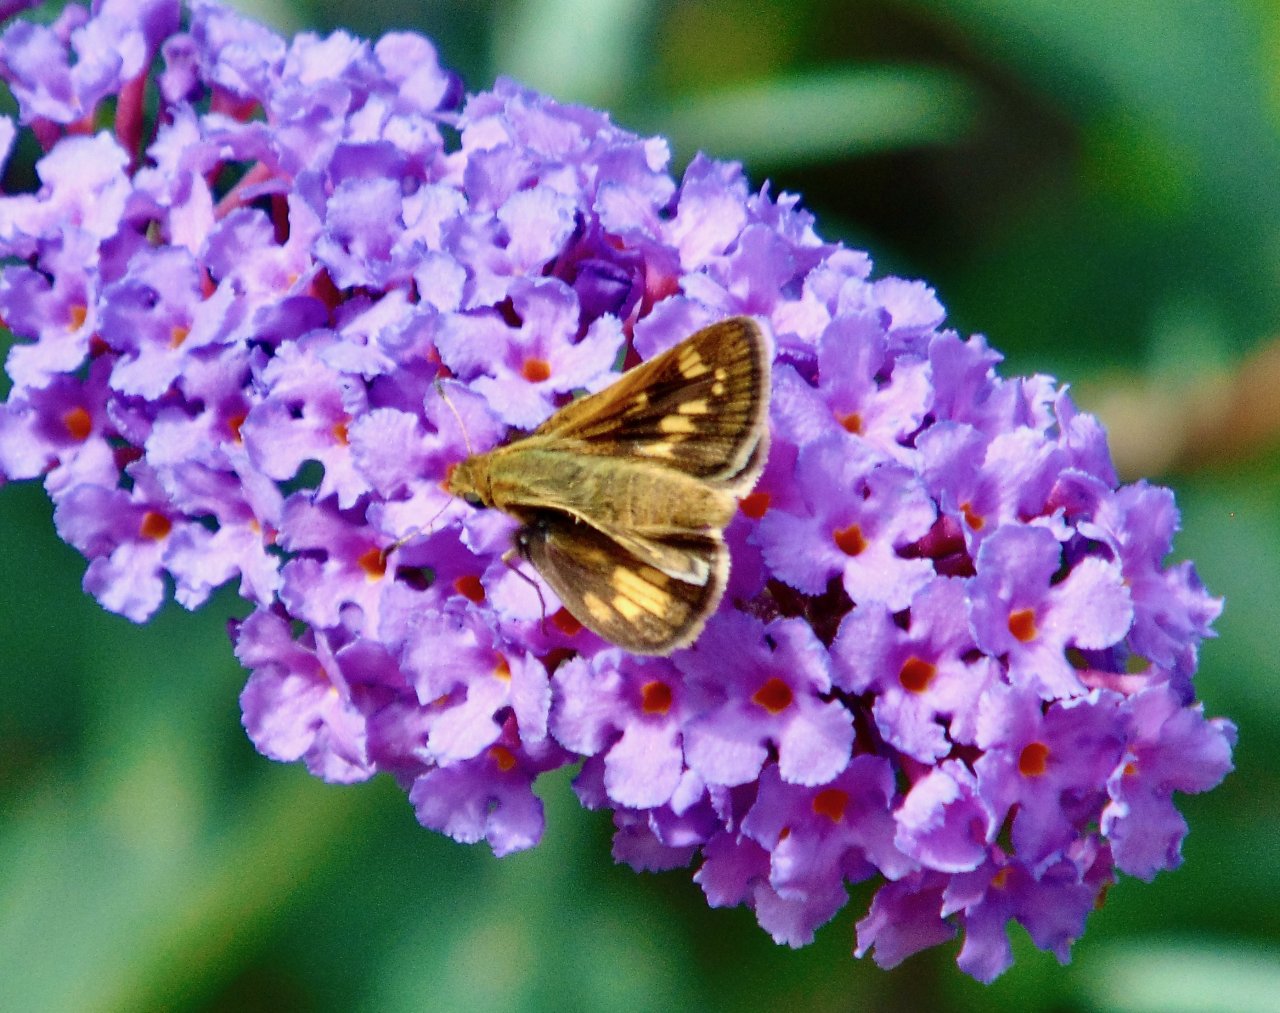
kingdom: Animalia
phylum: Arthropoda
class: Insecta
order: Lepidoptera
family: Hesperiidae
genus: Polites
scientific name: Polites coras
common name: Peck's Skipper
